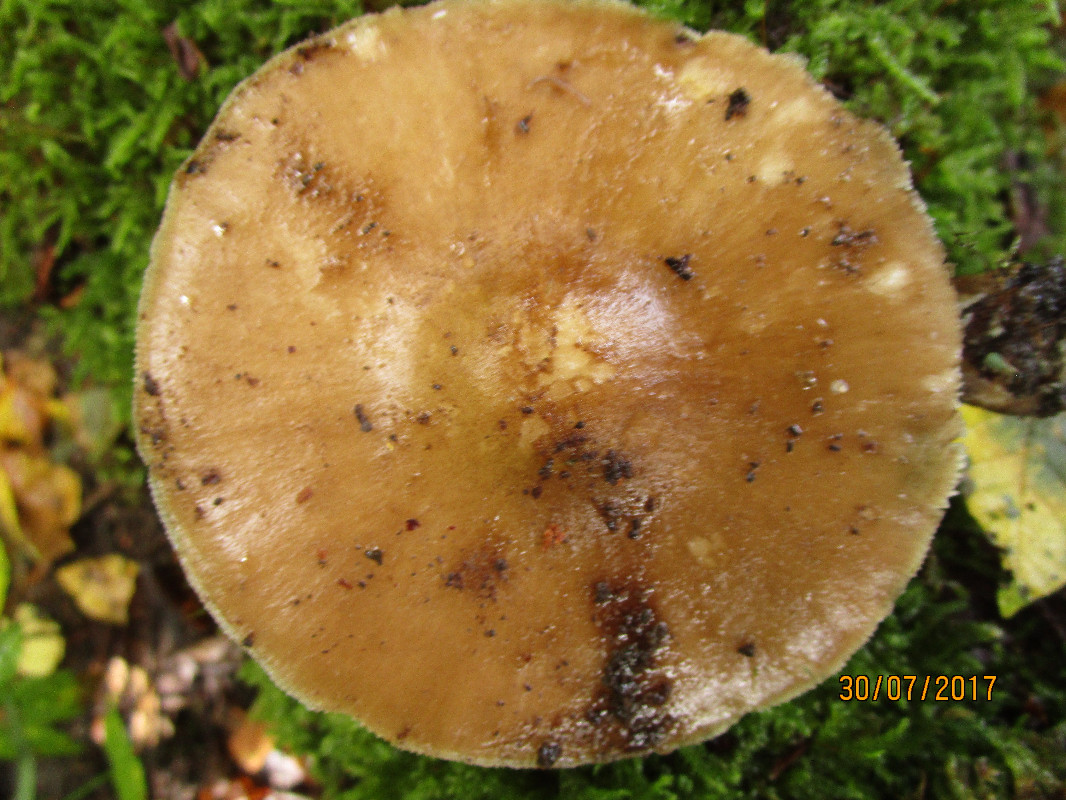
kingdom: Fungi
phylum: Basidiomycota
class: Agaricomycetes
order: Agaricales
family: Pluteaceae
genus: Pluteus
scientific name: Pluteus cervinus
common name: sodfarvet skærmhat
